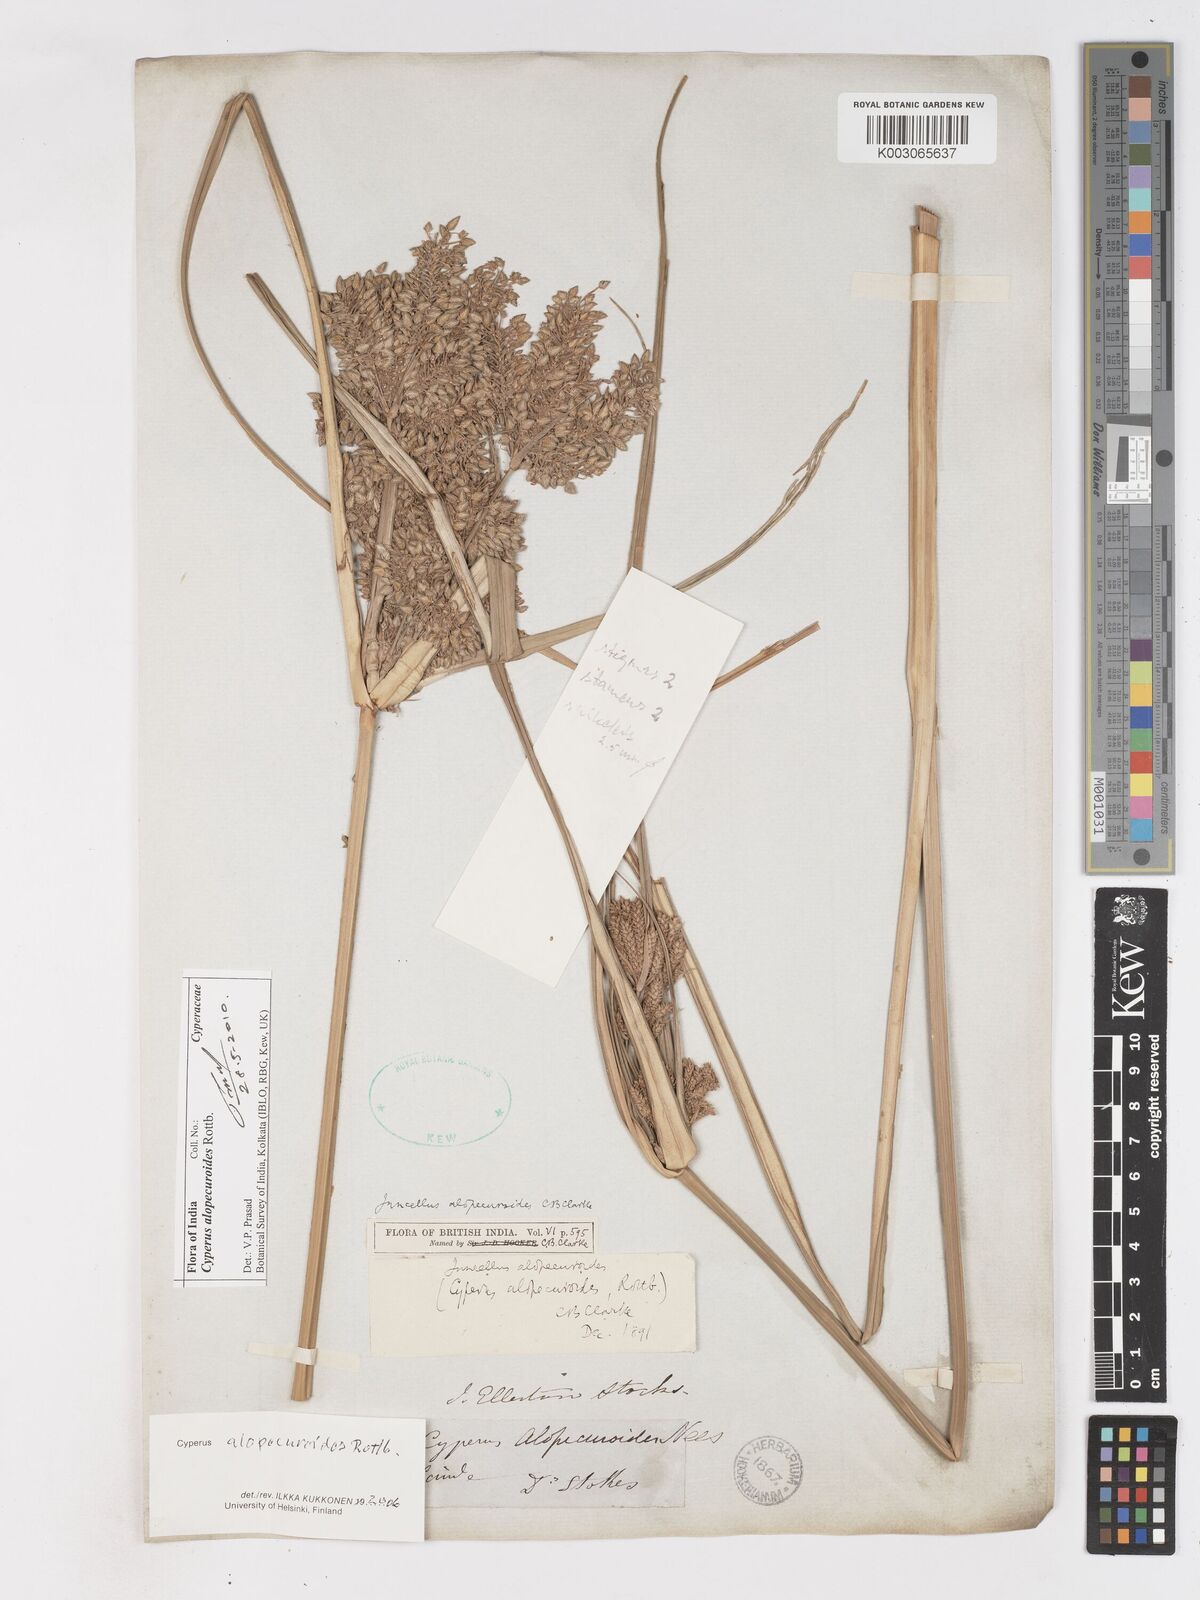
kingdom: Plantae
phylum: Tracheophyta
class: Liliopsida
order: Poales
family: Cyperaceae
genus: Cyperus
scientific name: Cyperus alopecuroides
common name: Foxtail flatsedge
